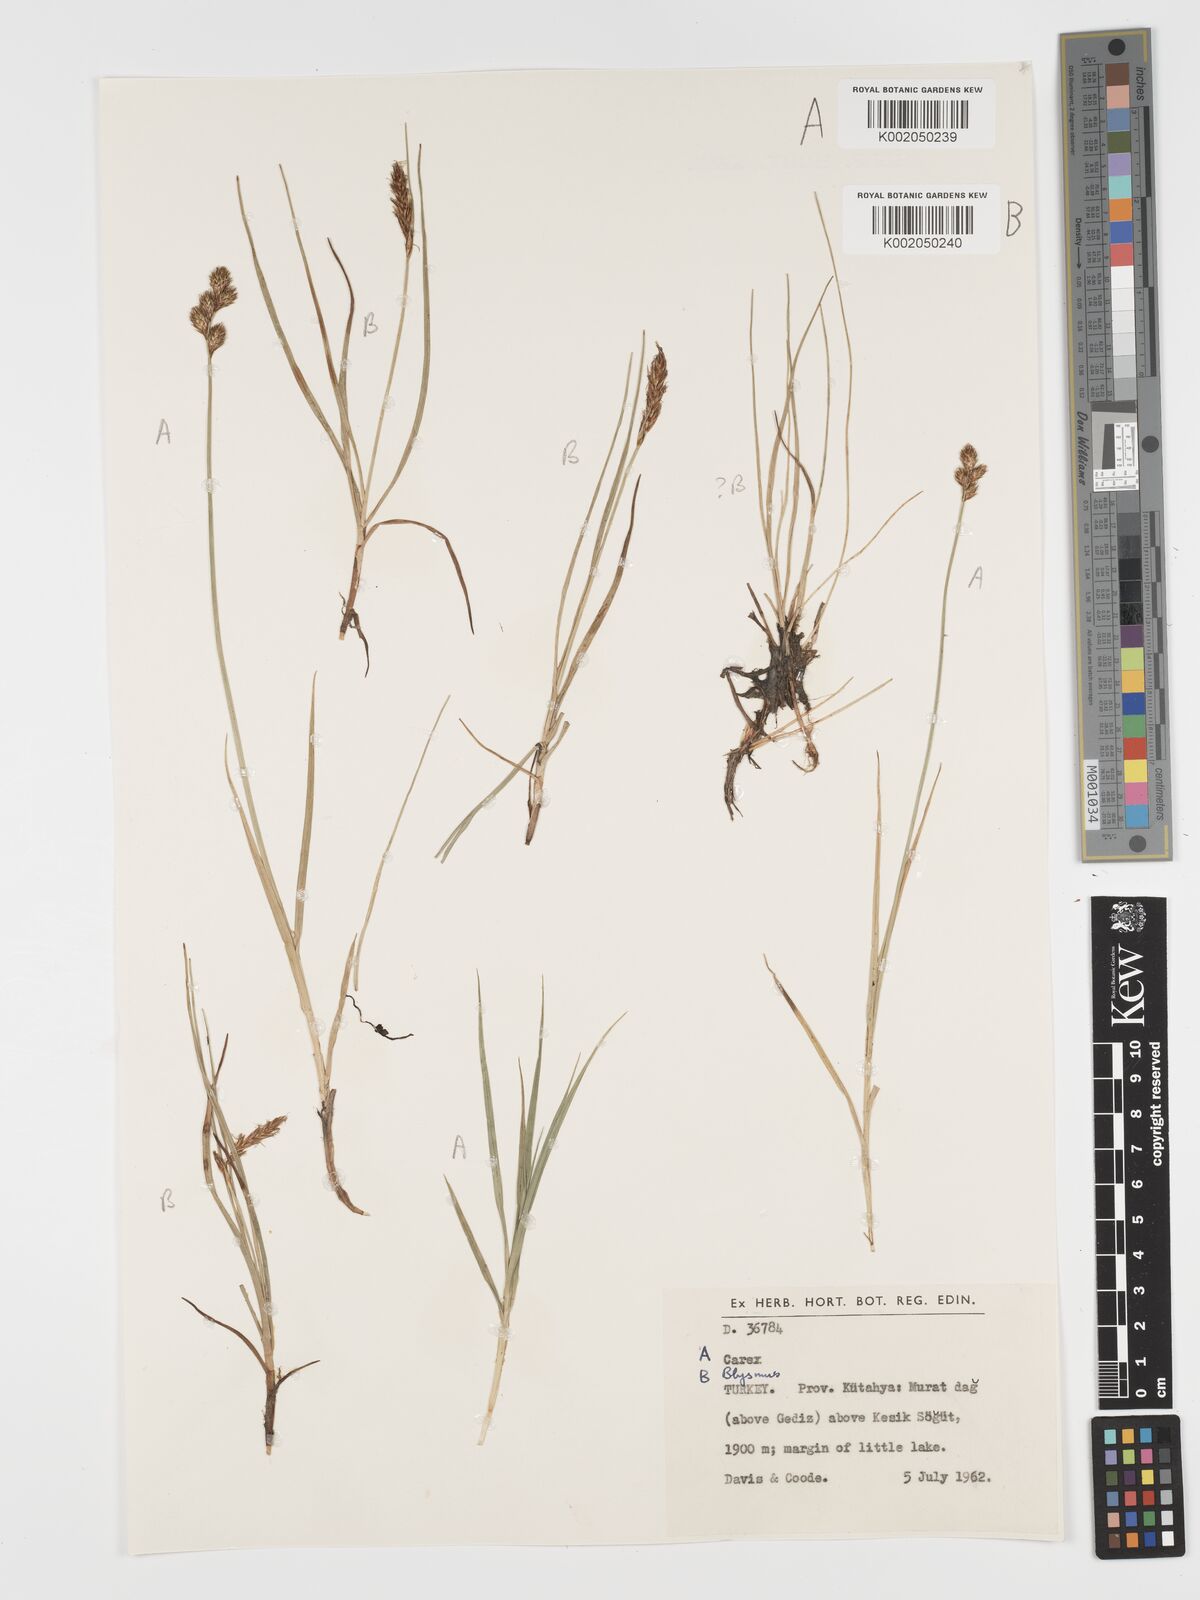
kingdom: Plantae
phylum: Tracheophyta
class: Liliopsida
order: Poales
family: Cyperaceae
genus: Blysmus
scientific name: Blysmus compressus
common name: Flat-sedge
